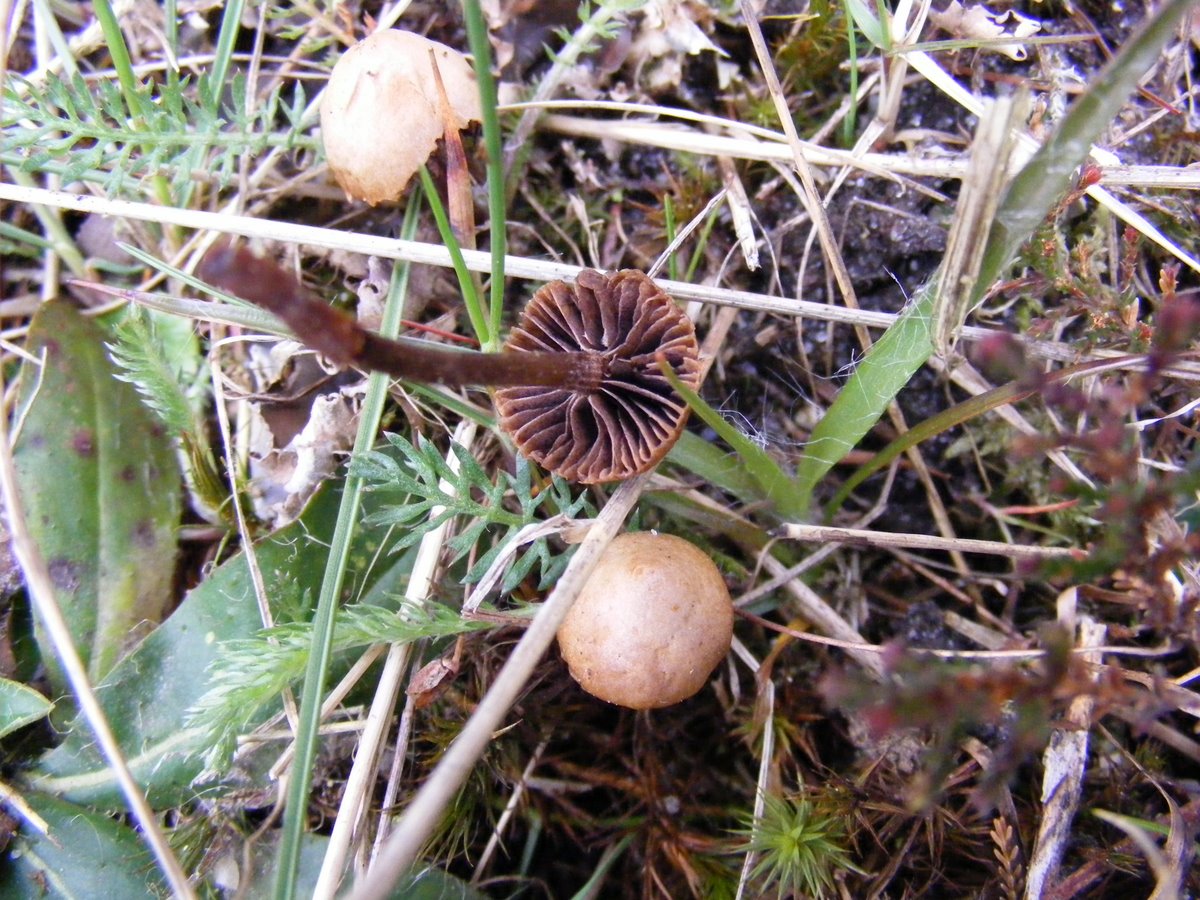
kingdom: Fungi
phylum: Basidiomycota
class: Agaricomycetes
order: Agaricales
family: Strophariaceae
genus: Deconica
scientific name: Deconica montana
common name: rødbrun stråhat
